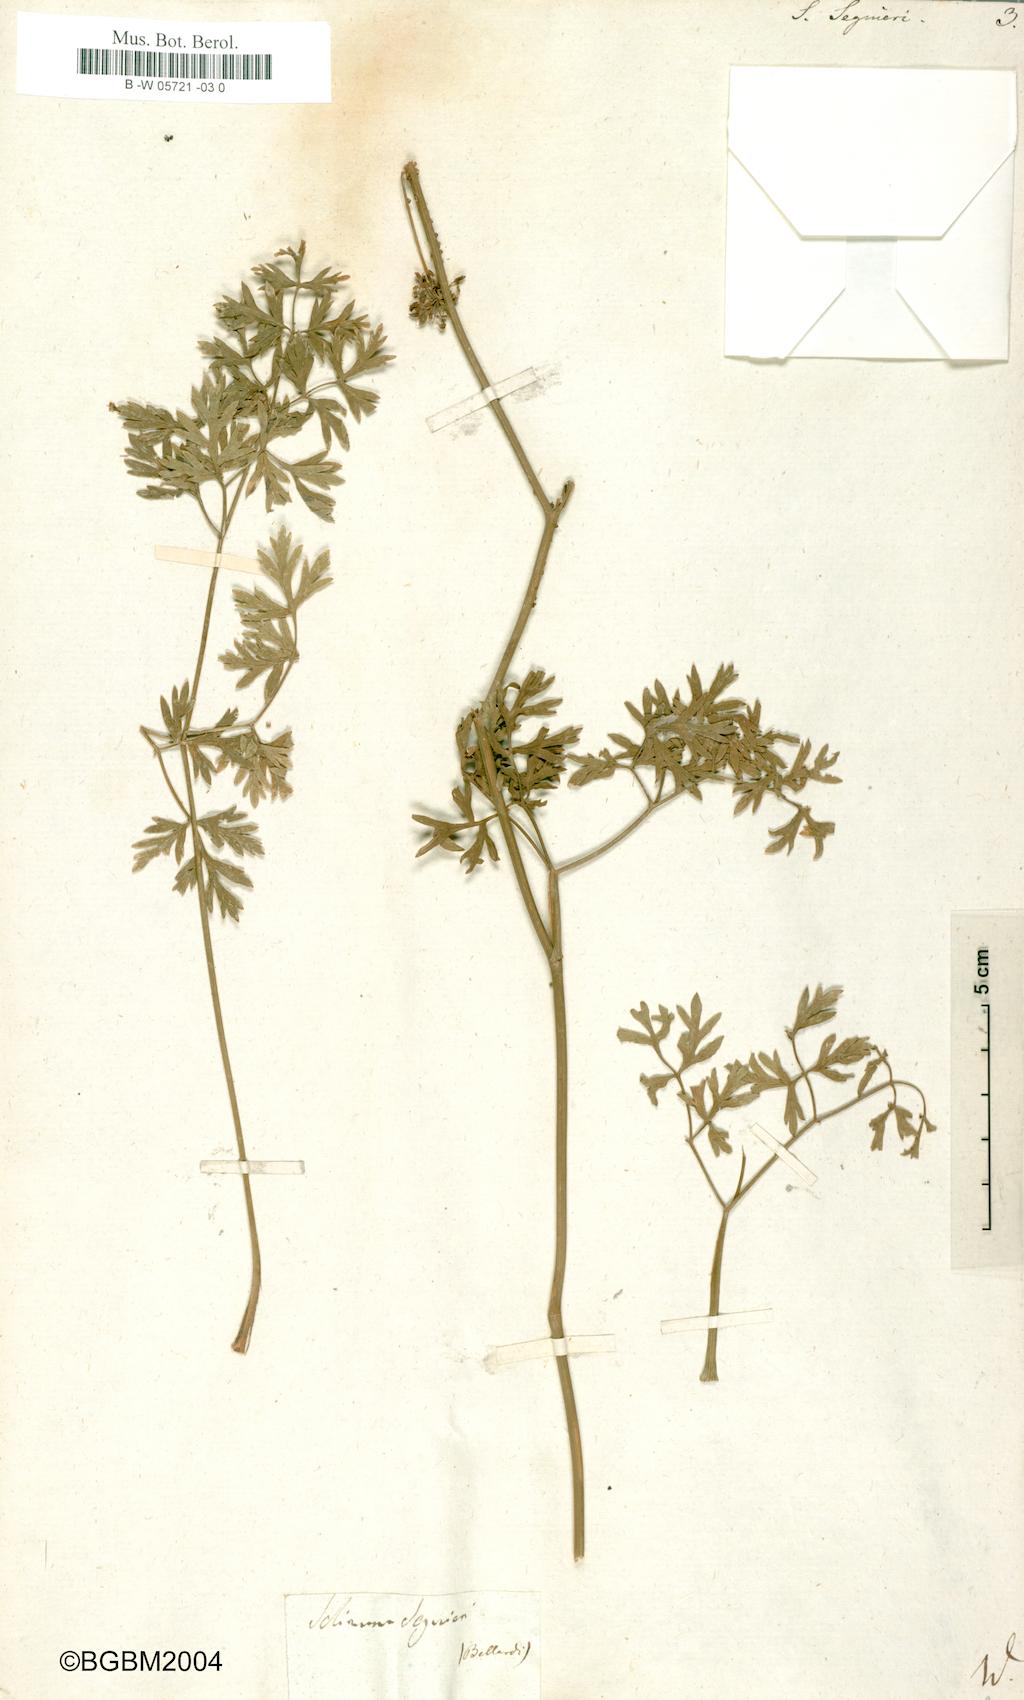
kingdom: Plantae
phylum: Tracheophyta
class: Magnoliopsida
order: Apiales
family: Apiaceae
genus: Coristospermum
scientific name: Coristospermum lucidum
